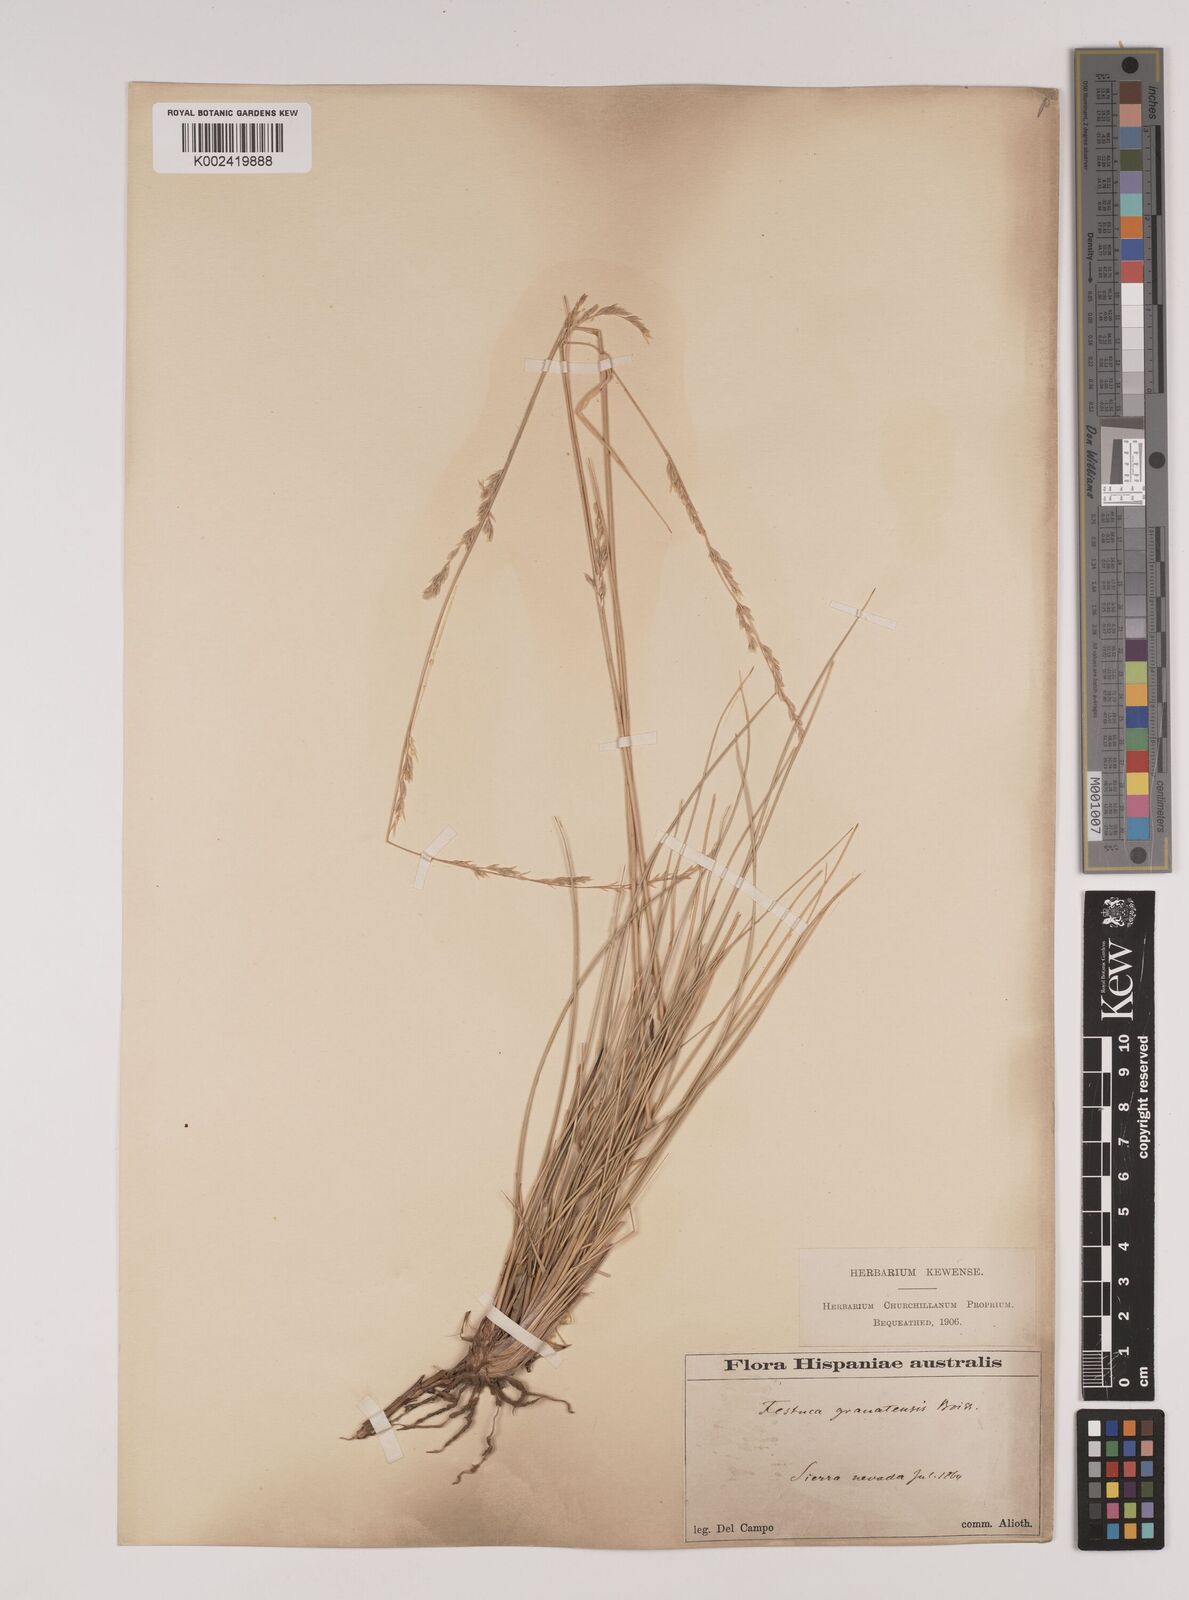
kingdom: Plantae
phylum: Tracheophyta
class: Liliopsida
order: Poales
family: Poaceae
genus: Festuca
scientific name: Festuca scariosa
